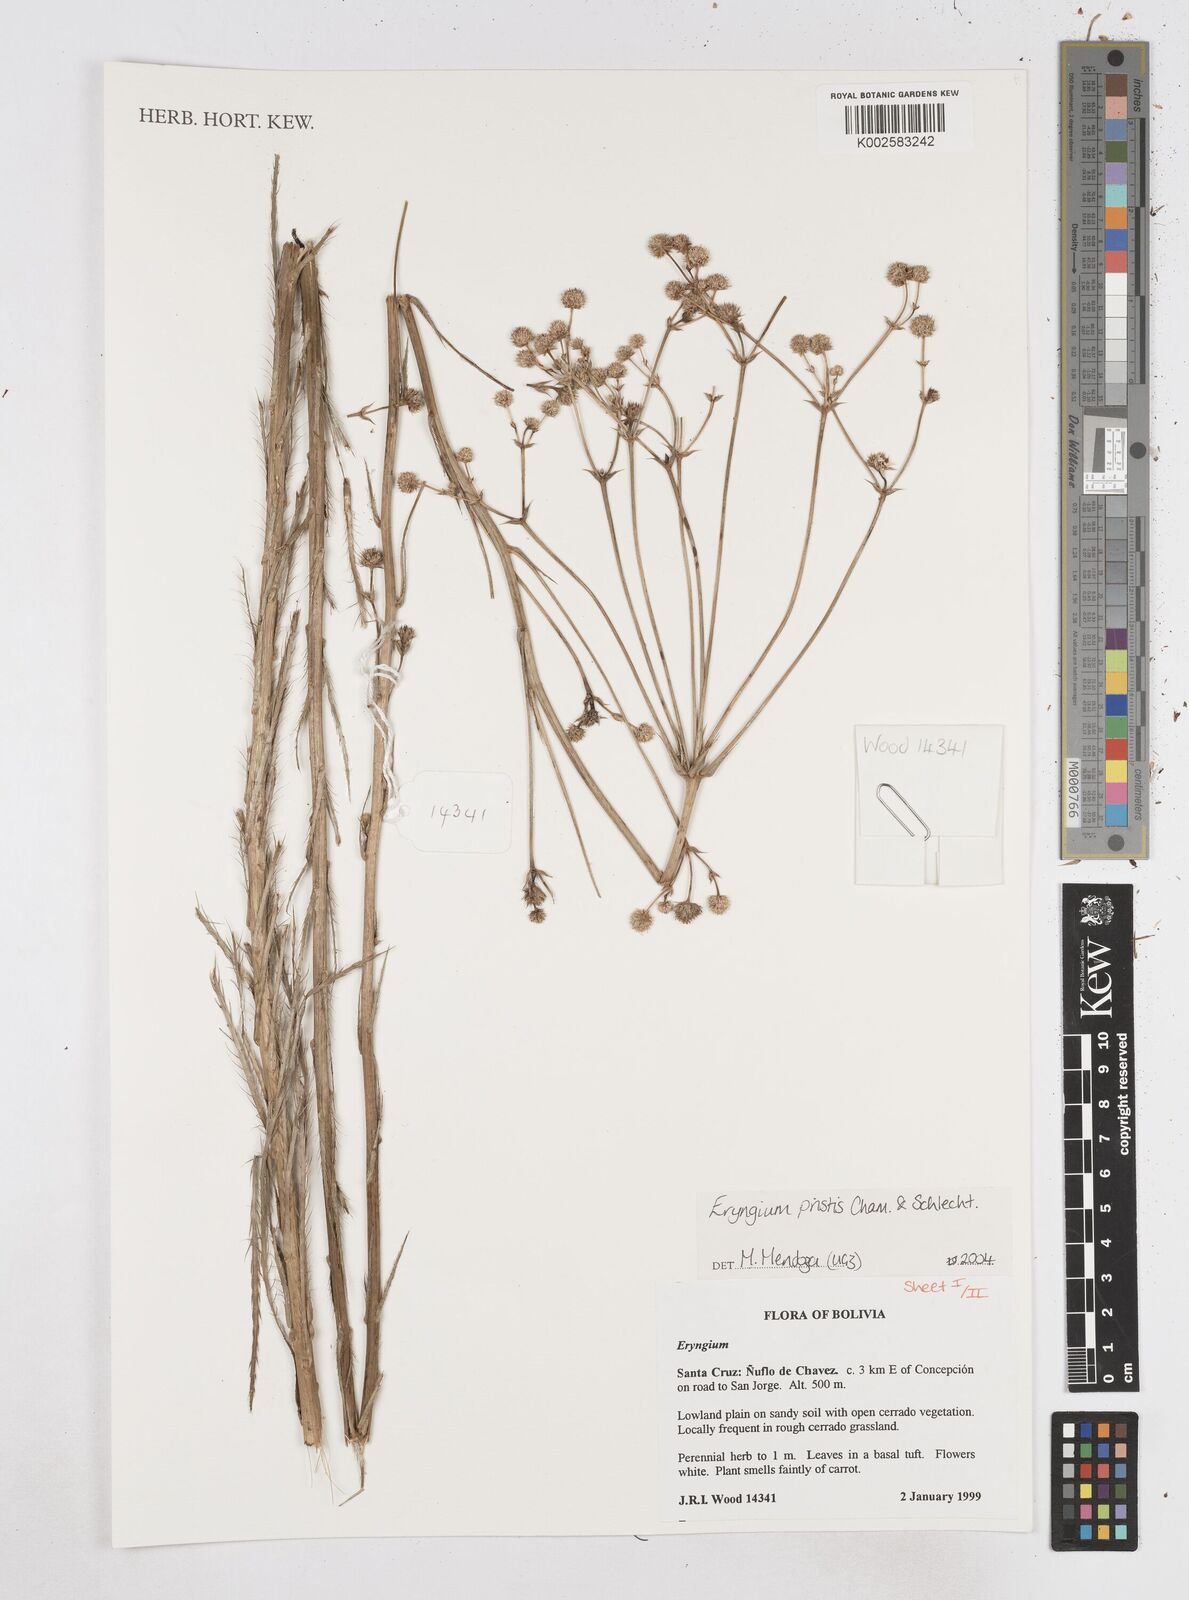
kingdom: Plantae
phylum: Tracheophyta
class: Magnoliopsida
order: Apiales
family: Apiaceae
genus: Eryngium
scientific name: Eryngium pristis
